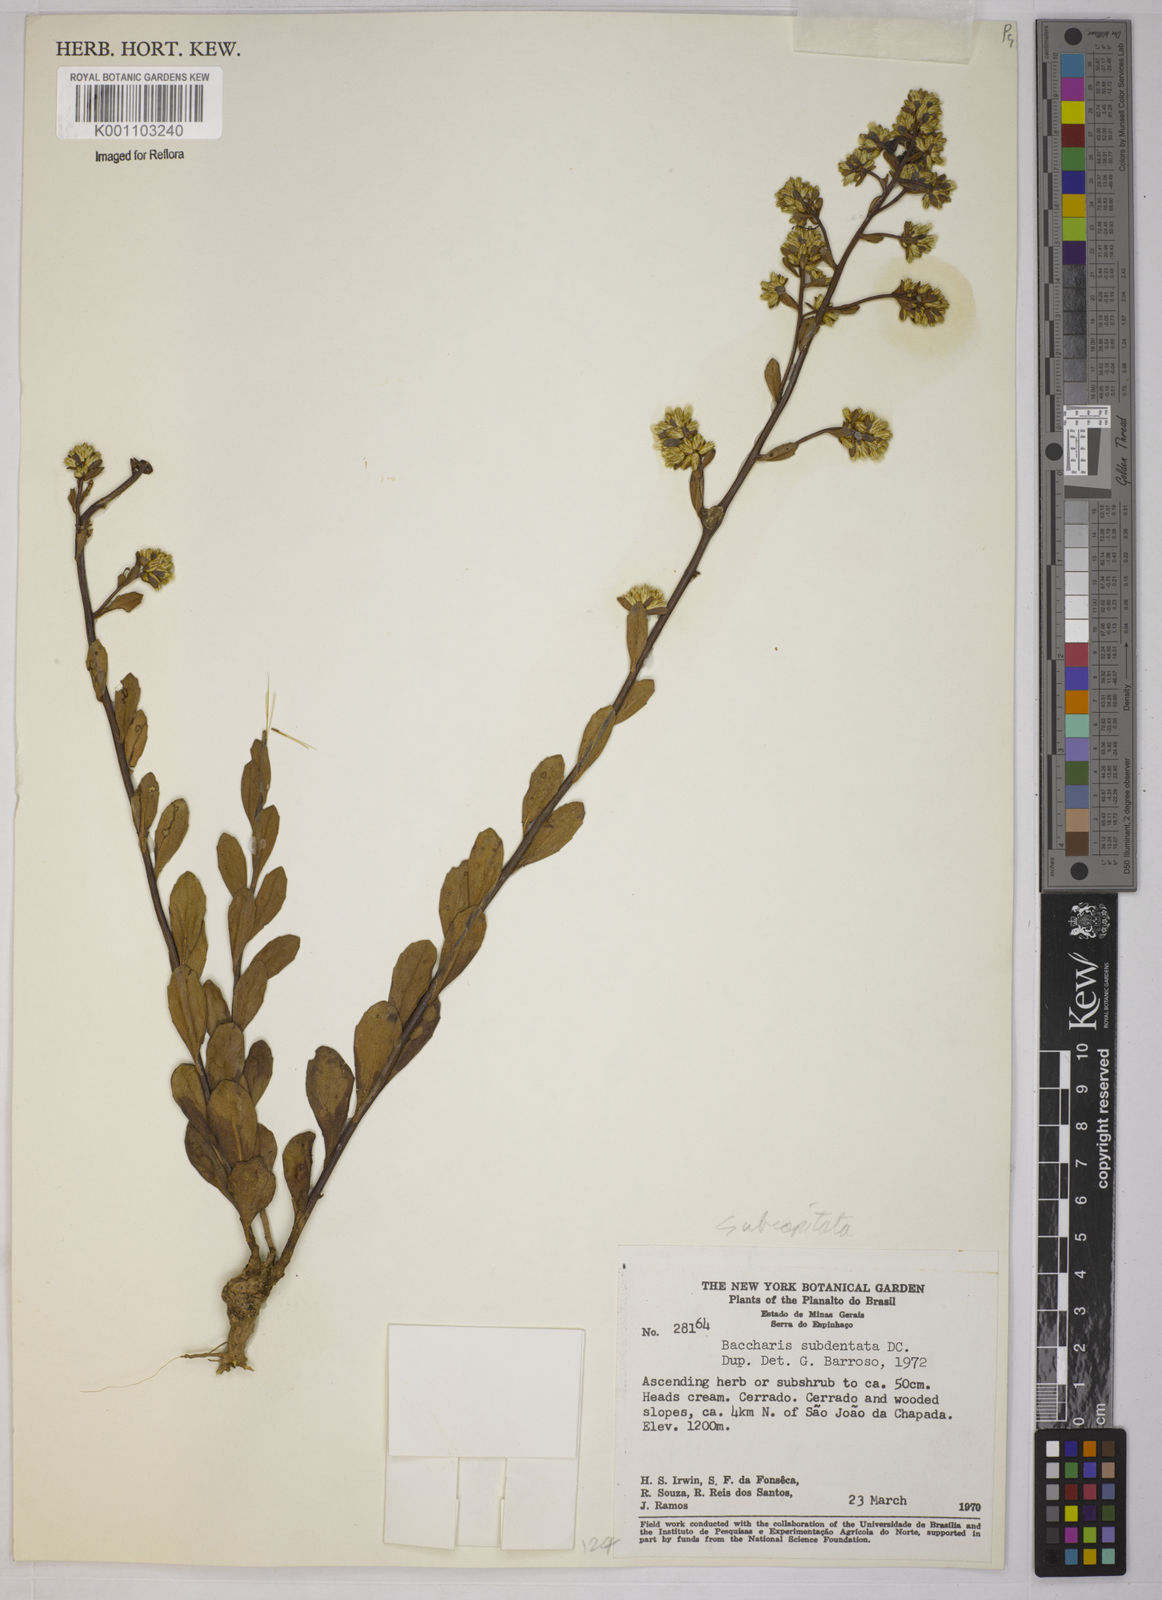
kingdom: Plantae
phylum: Tracheophyta
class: Magnoliopsida
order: Asterales
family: Asteraceae
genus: Baccharis
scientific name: Baccharis subdentata
